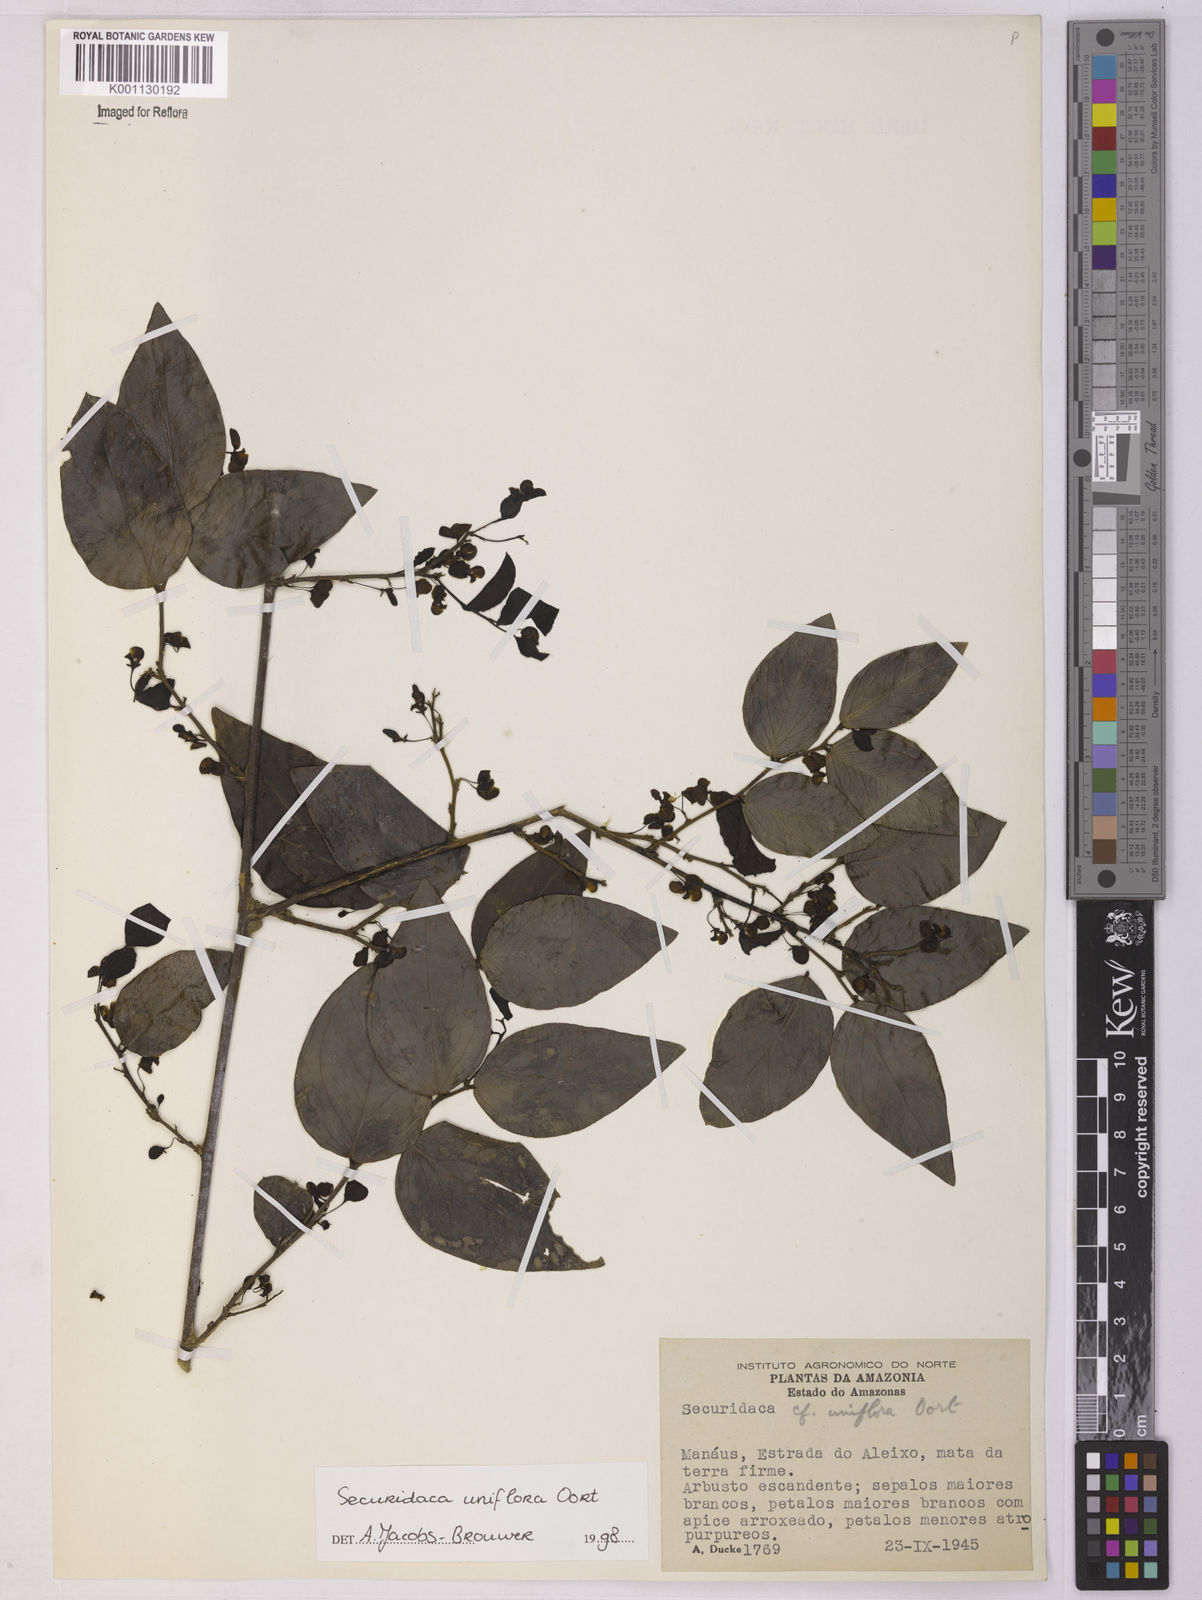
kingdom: Plantae
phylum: Tracheophyta
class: Magnoliopsida
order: Fabales
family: Polygalaceae
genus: Securidaca
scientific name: Securidaca uniflora
